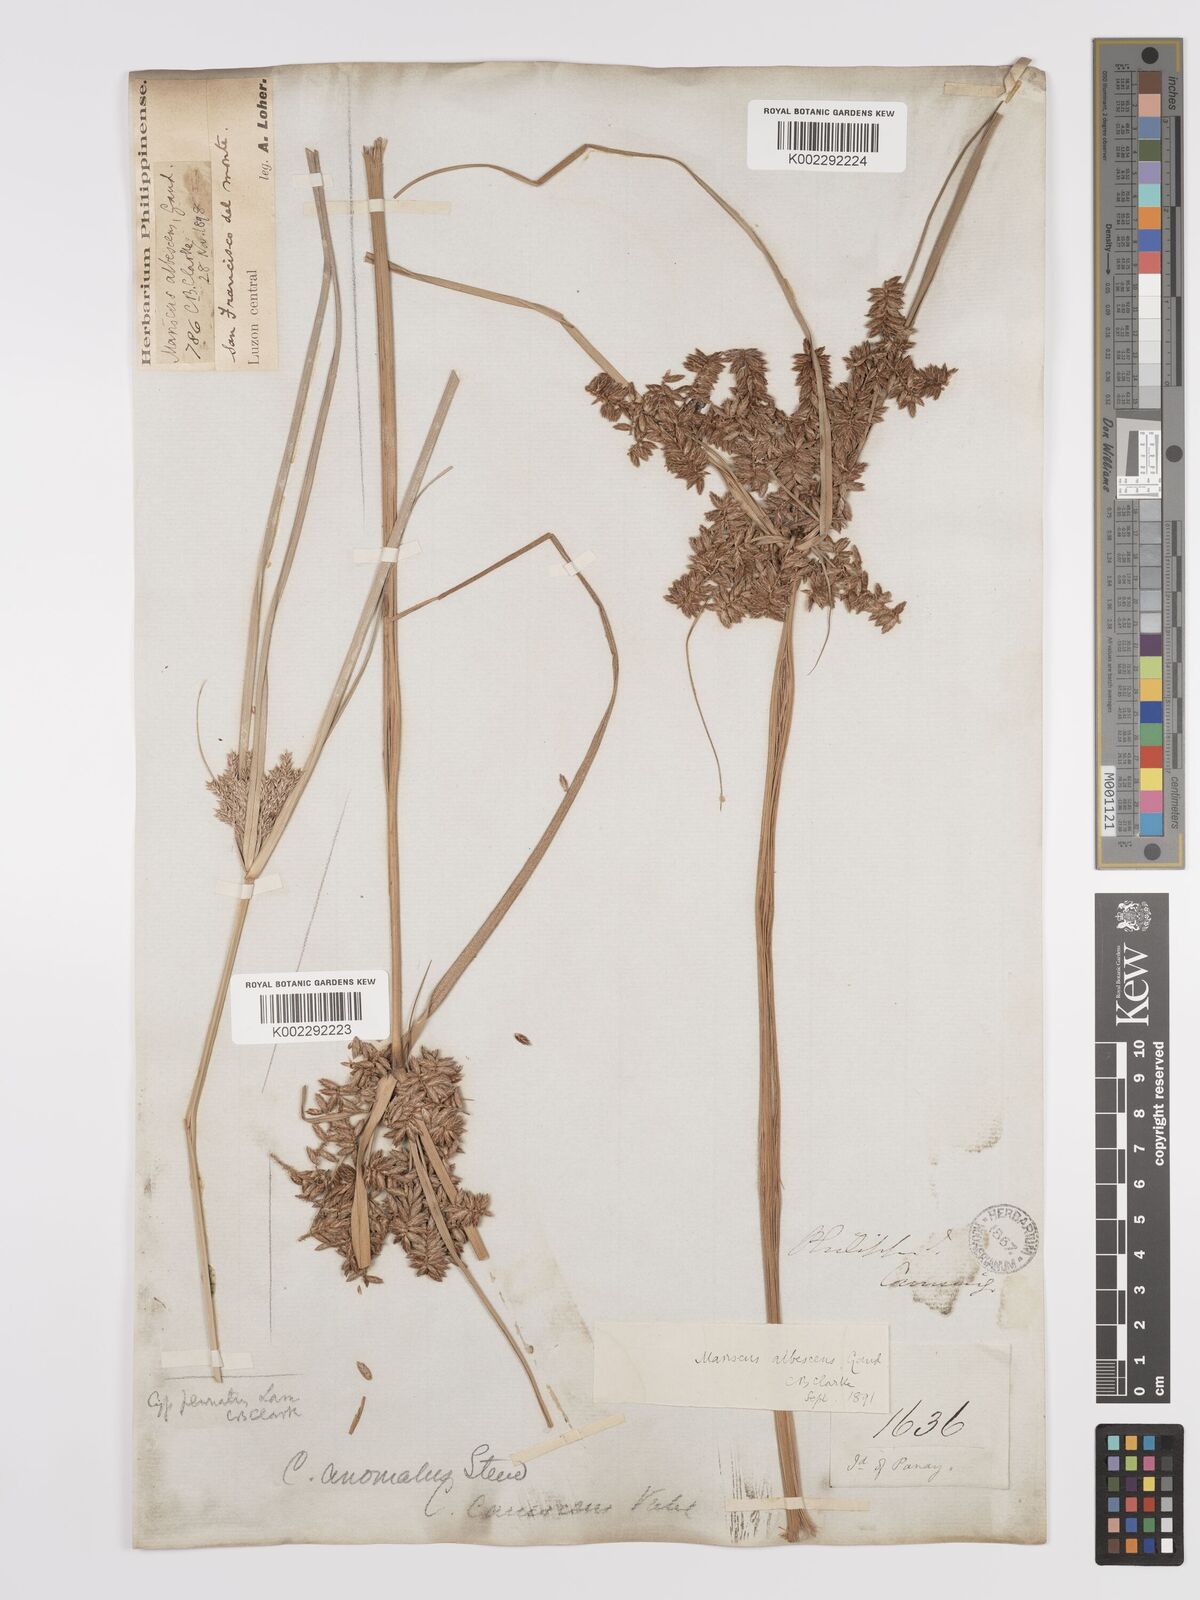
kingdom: Plantae
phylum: Tracheophyta
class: Liliopsida
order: Poales
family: Cyperaceae
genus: Cyperus
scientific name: Cyperus javanicus
